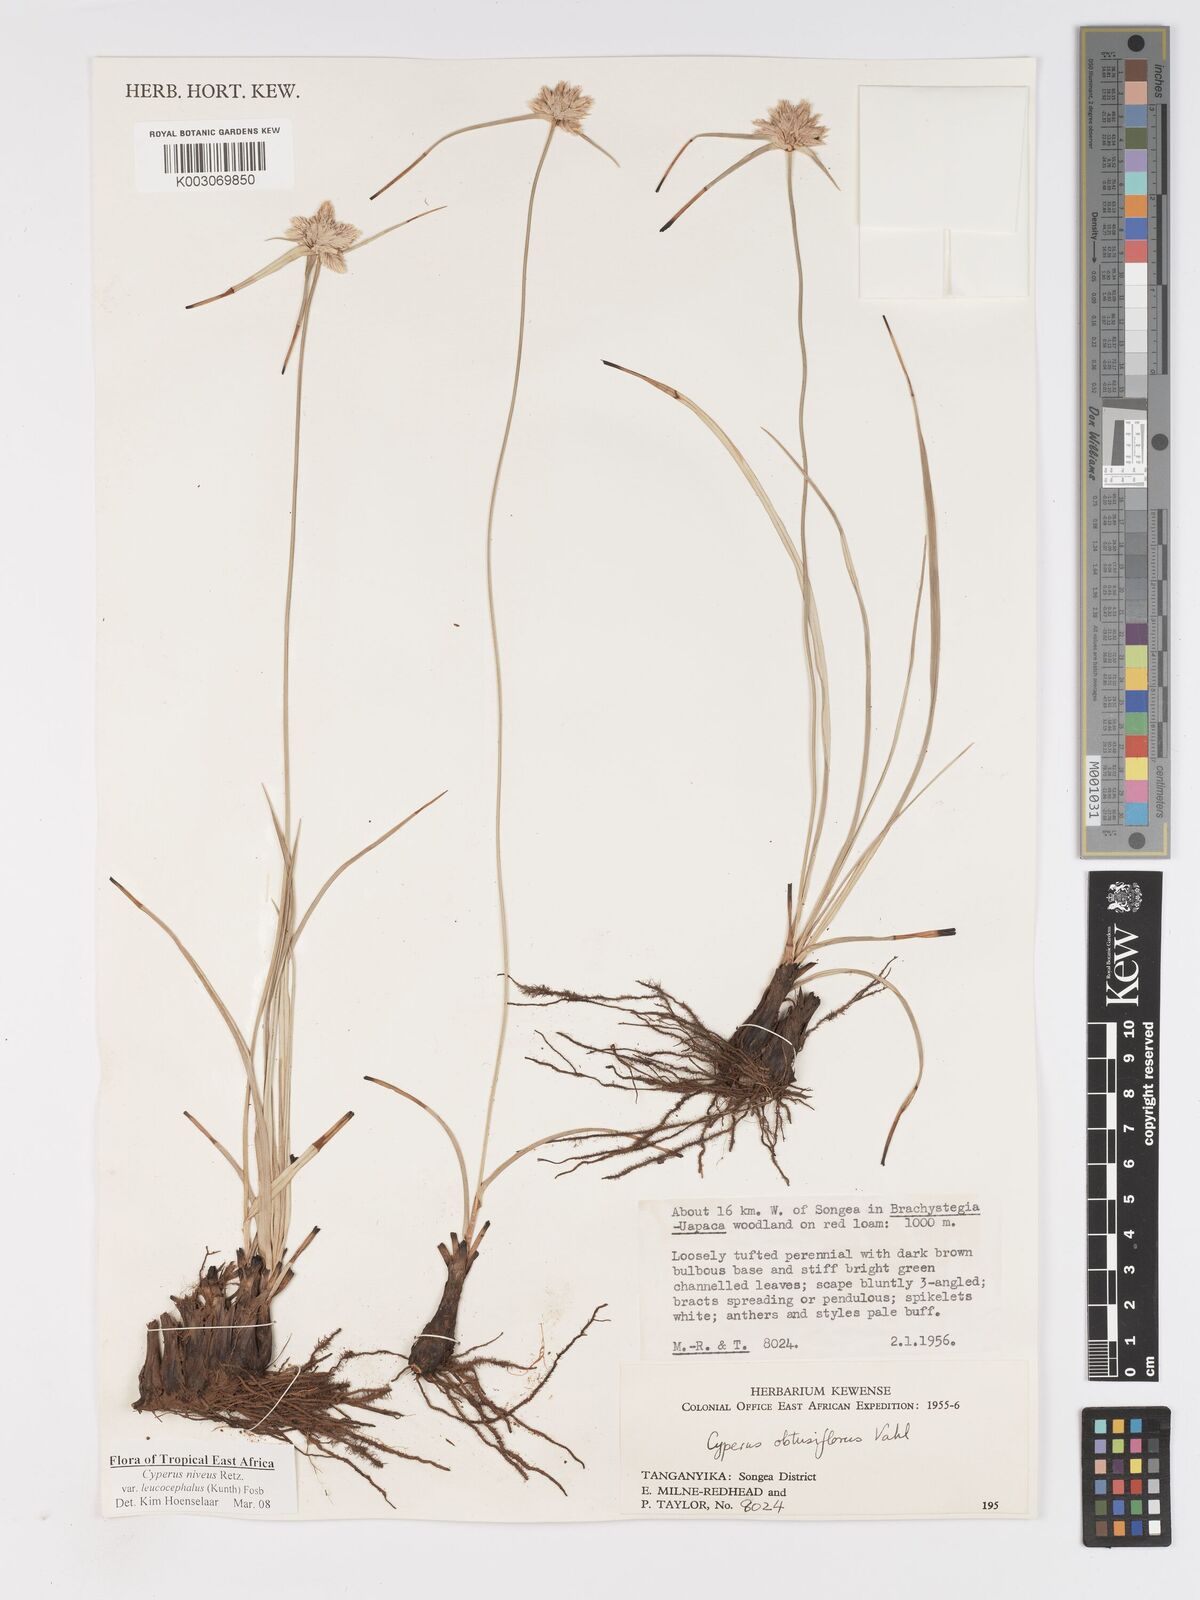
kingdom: Plantae
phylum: Tracheophyta
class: Liliopsida
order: Poales
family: Cyperaceae
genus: Cyperus
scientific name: Cyperus niveus
